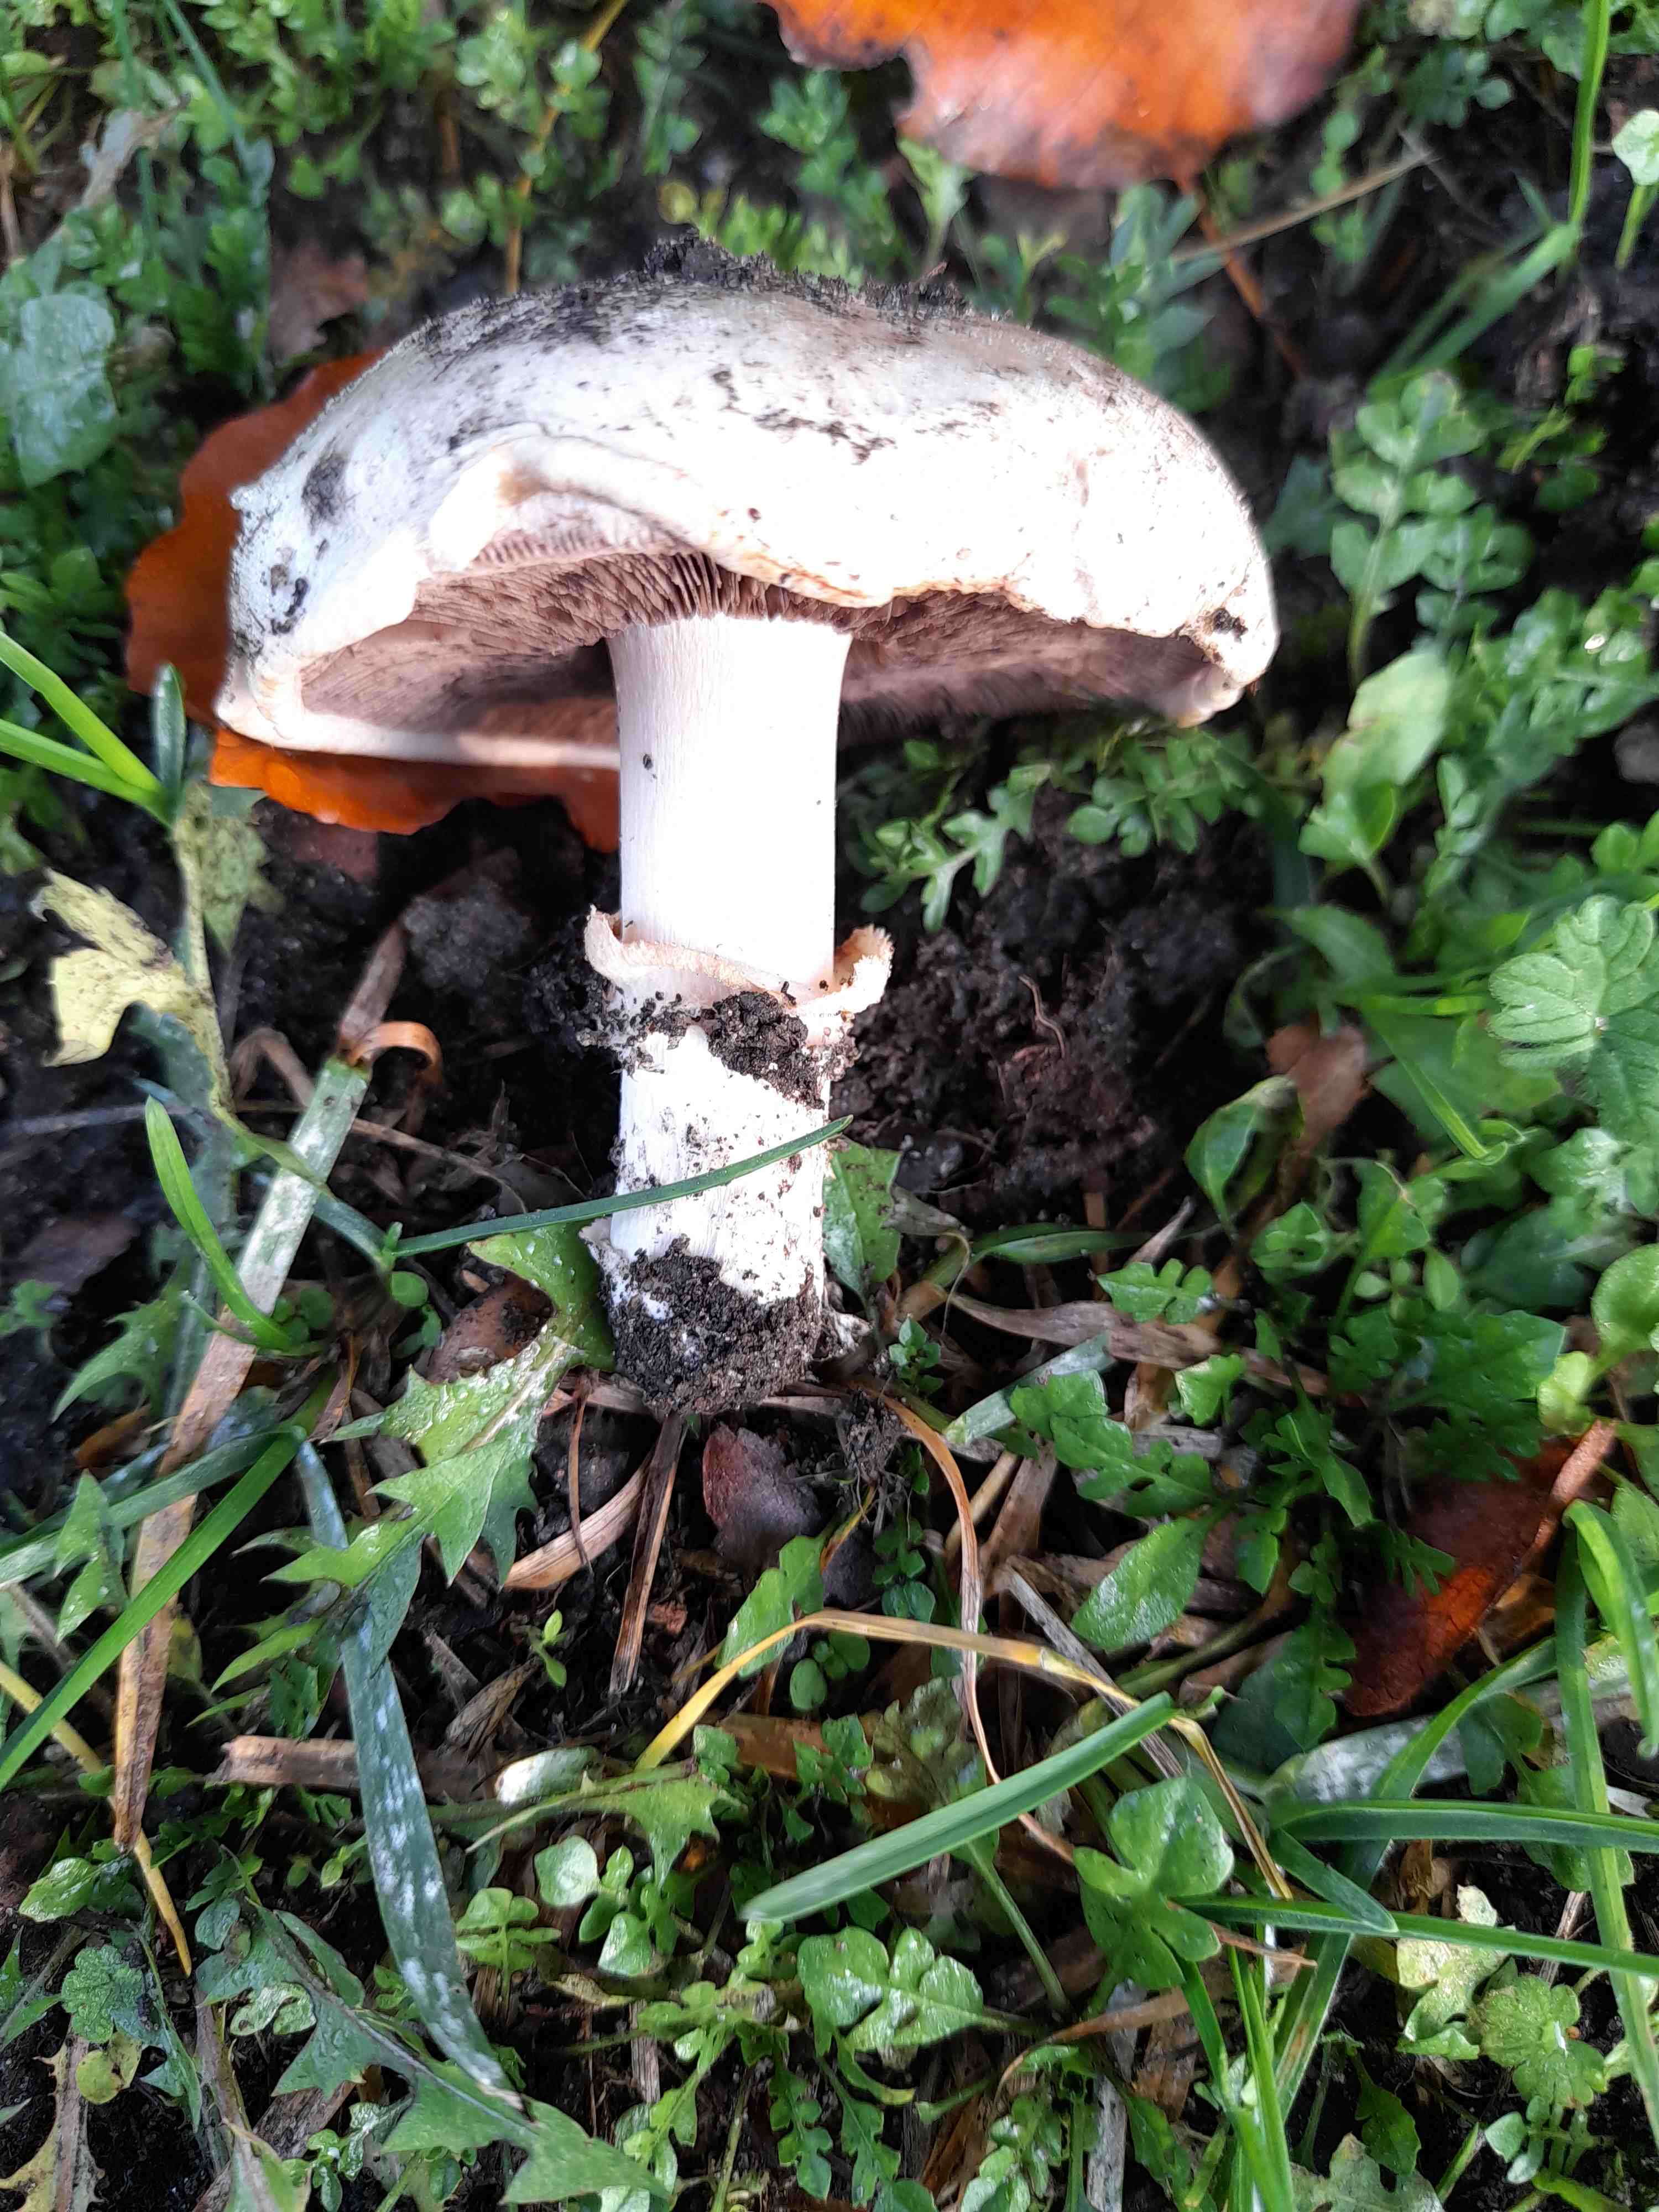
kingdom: Fungi
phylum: Basidiomycota
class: Agaricomycetes
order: Agaricales
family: Agaricaceae
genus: Agaricus
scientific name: Agaricus bitorquis
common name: vej-champignon
